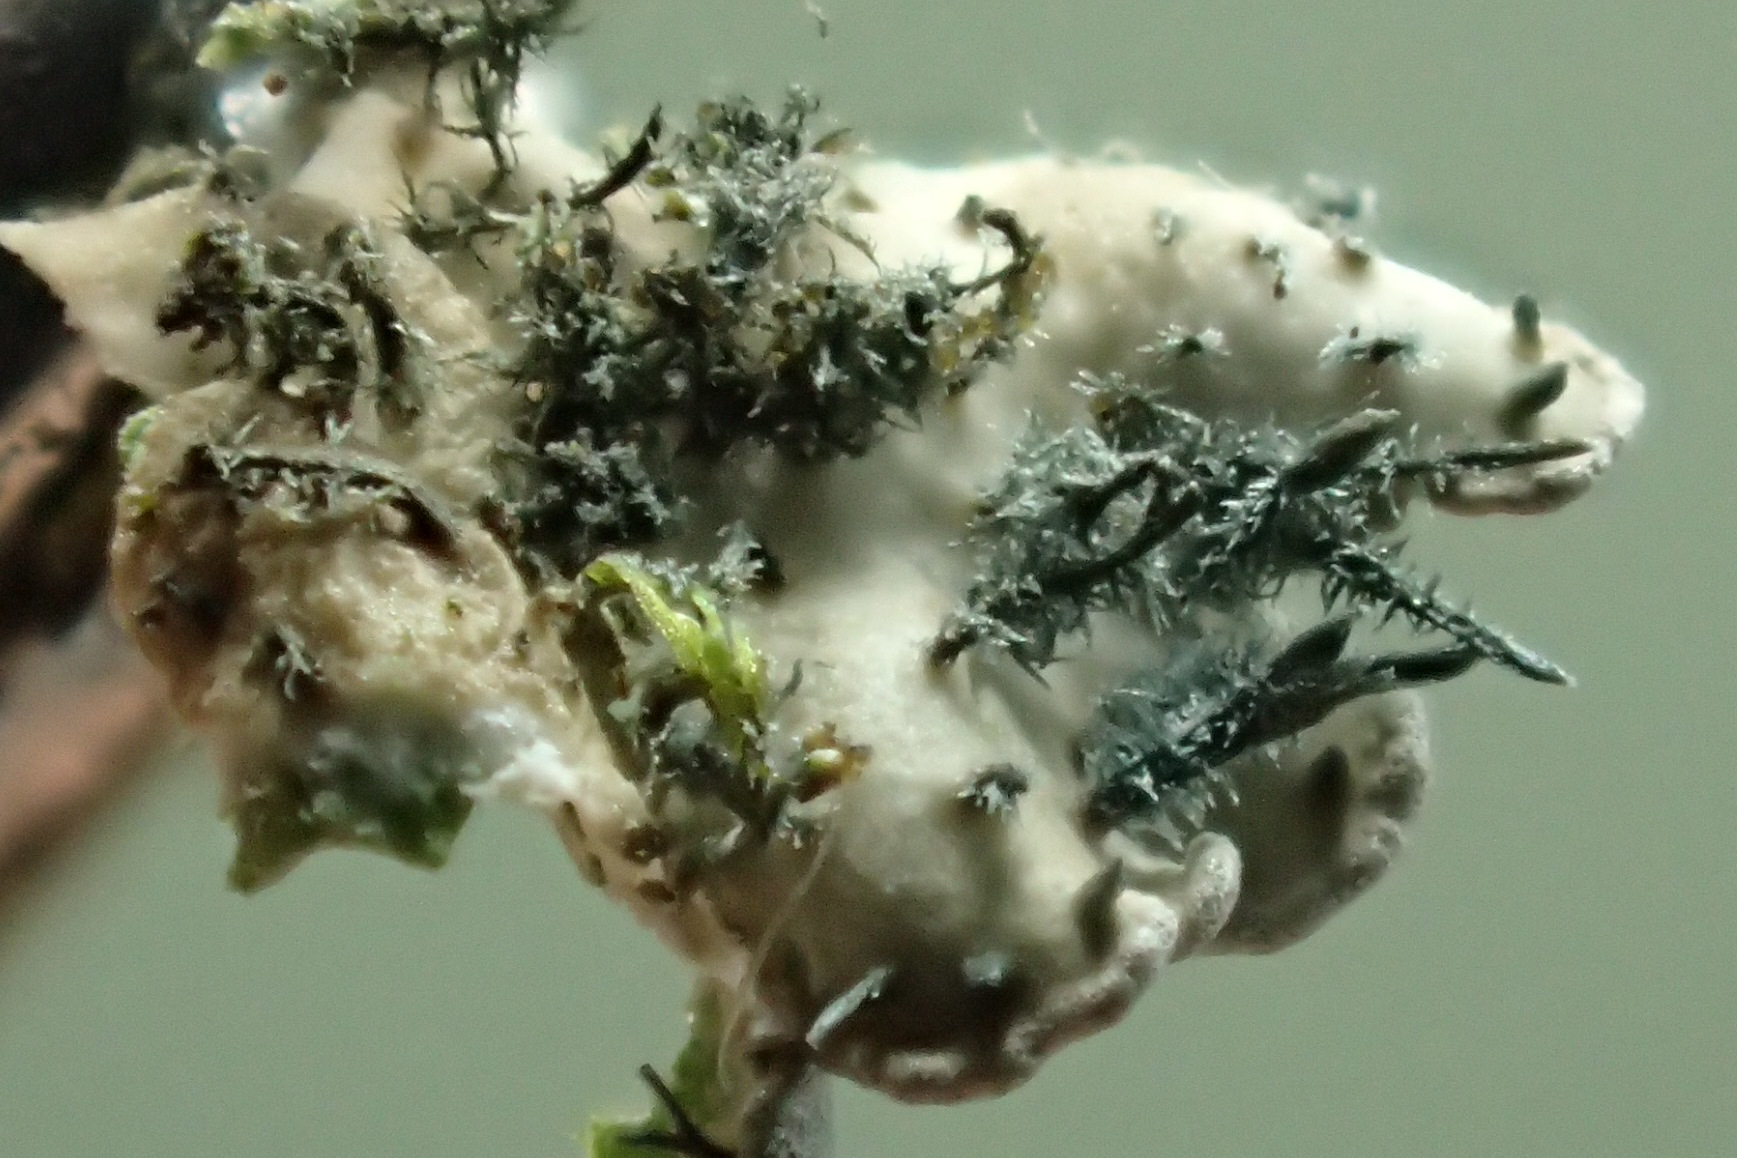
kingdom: Fungi
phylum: Ascomycota
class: Lecanoromycetes
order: Caliciales
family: Physciaceae
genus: Physconia
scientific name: Physconia enteroxantha
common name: grynet dugrosetlav
